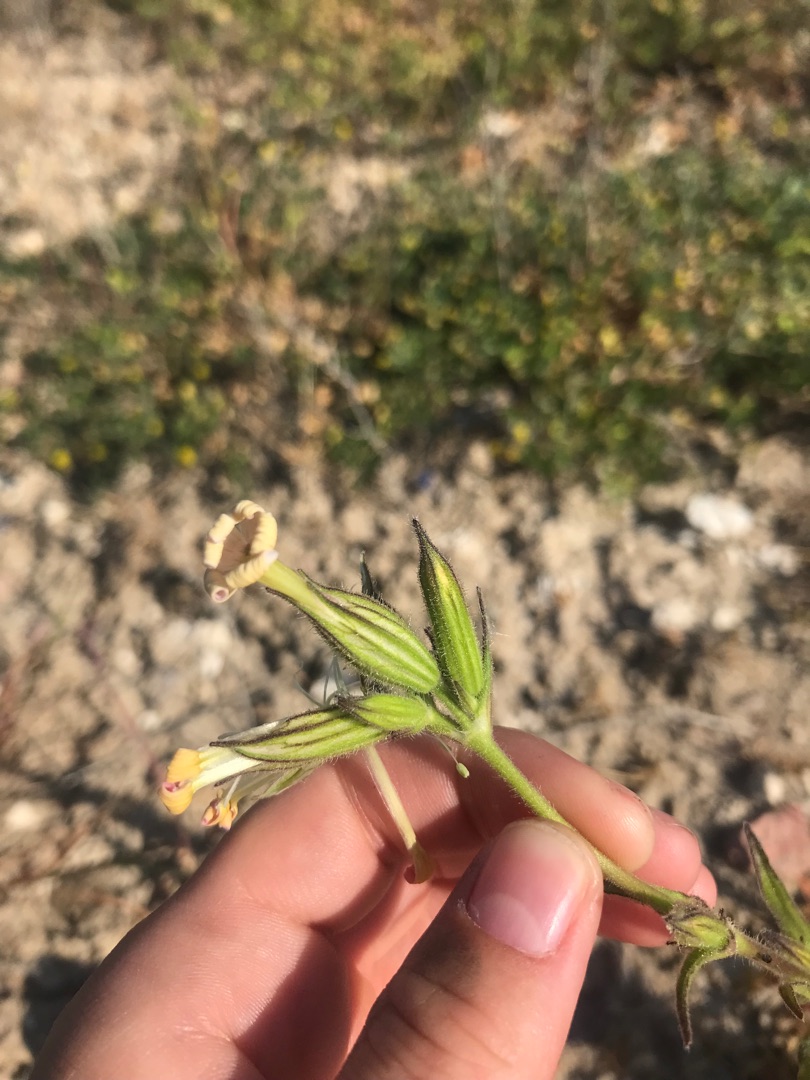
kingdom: Plantae
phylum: Tracheophyta
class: Magnoliopsida
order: Caryophyllales
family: Caryophyllaceae
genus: Silene
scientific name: Silene noctiflora
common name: Nat-limurt
